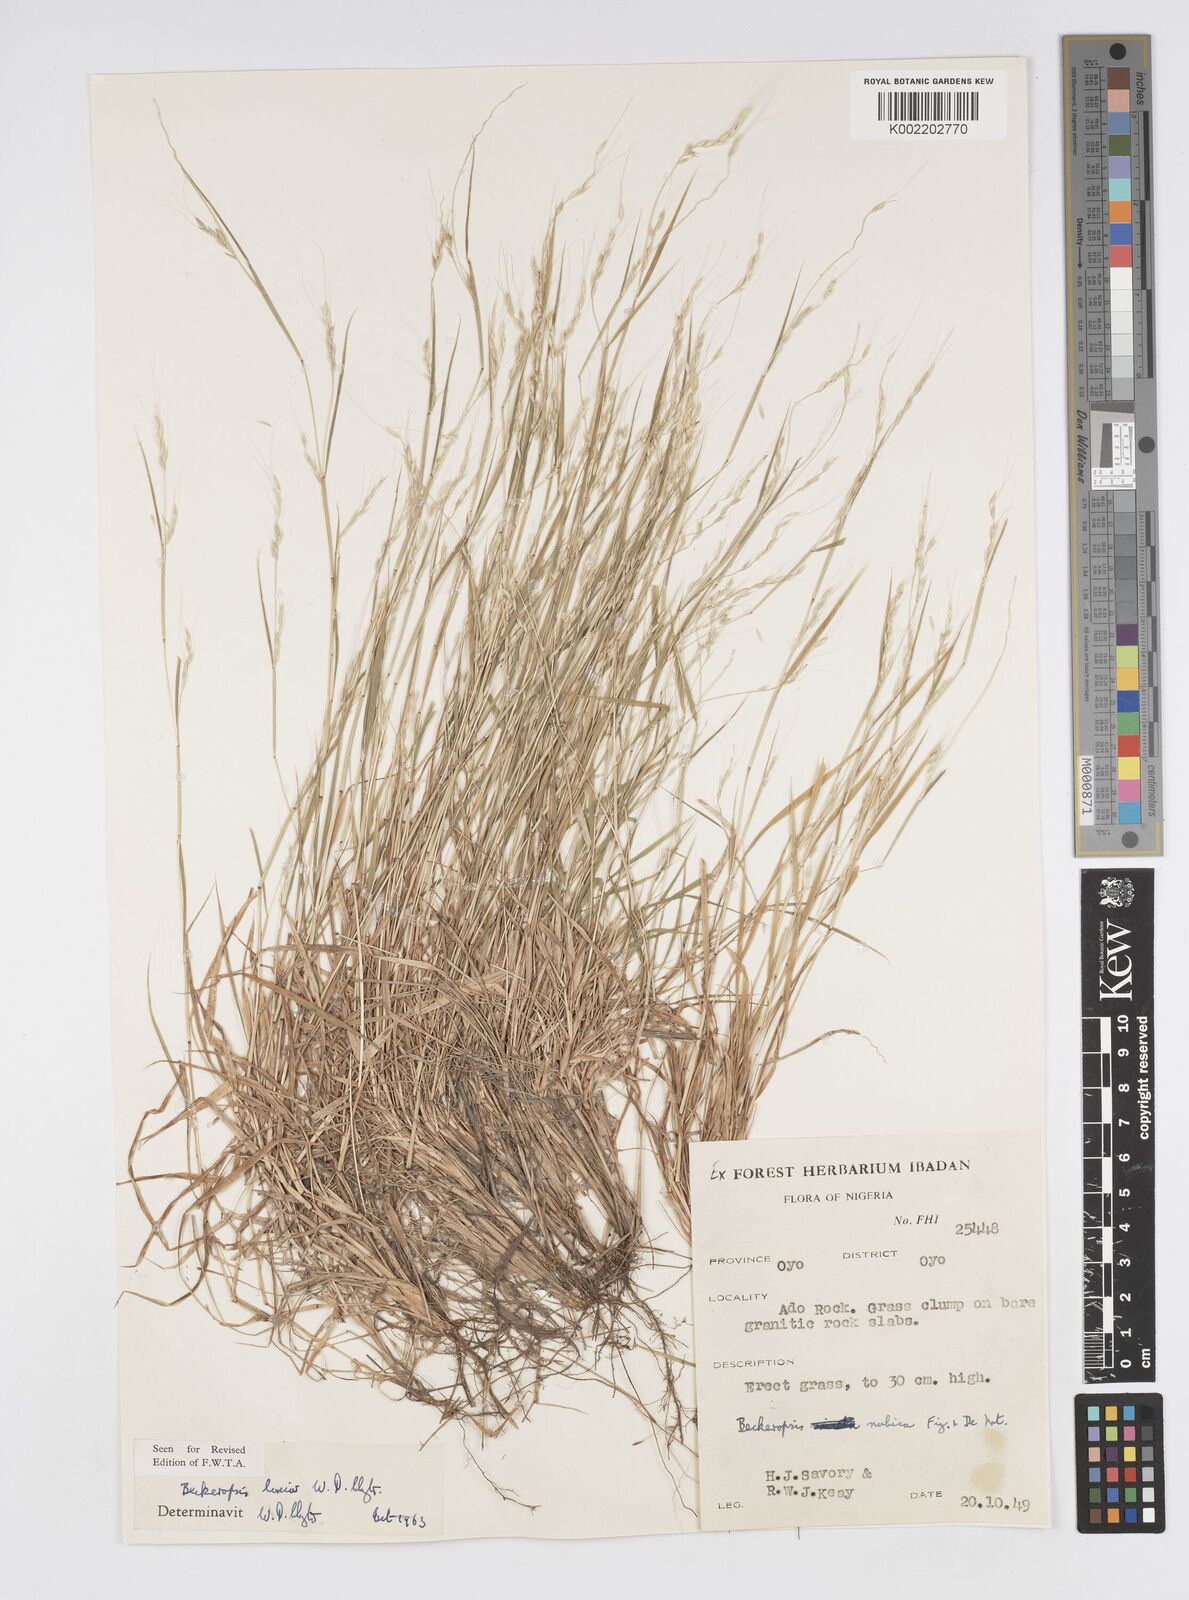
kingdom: Plantae
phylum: Tracheophyta
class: Liliopsida
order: Poales
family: Poaceae
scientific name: Poaceae
